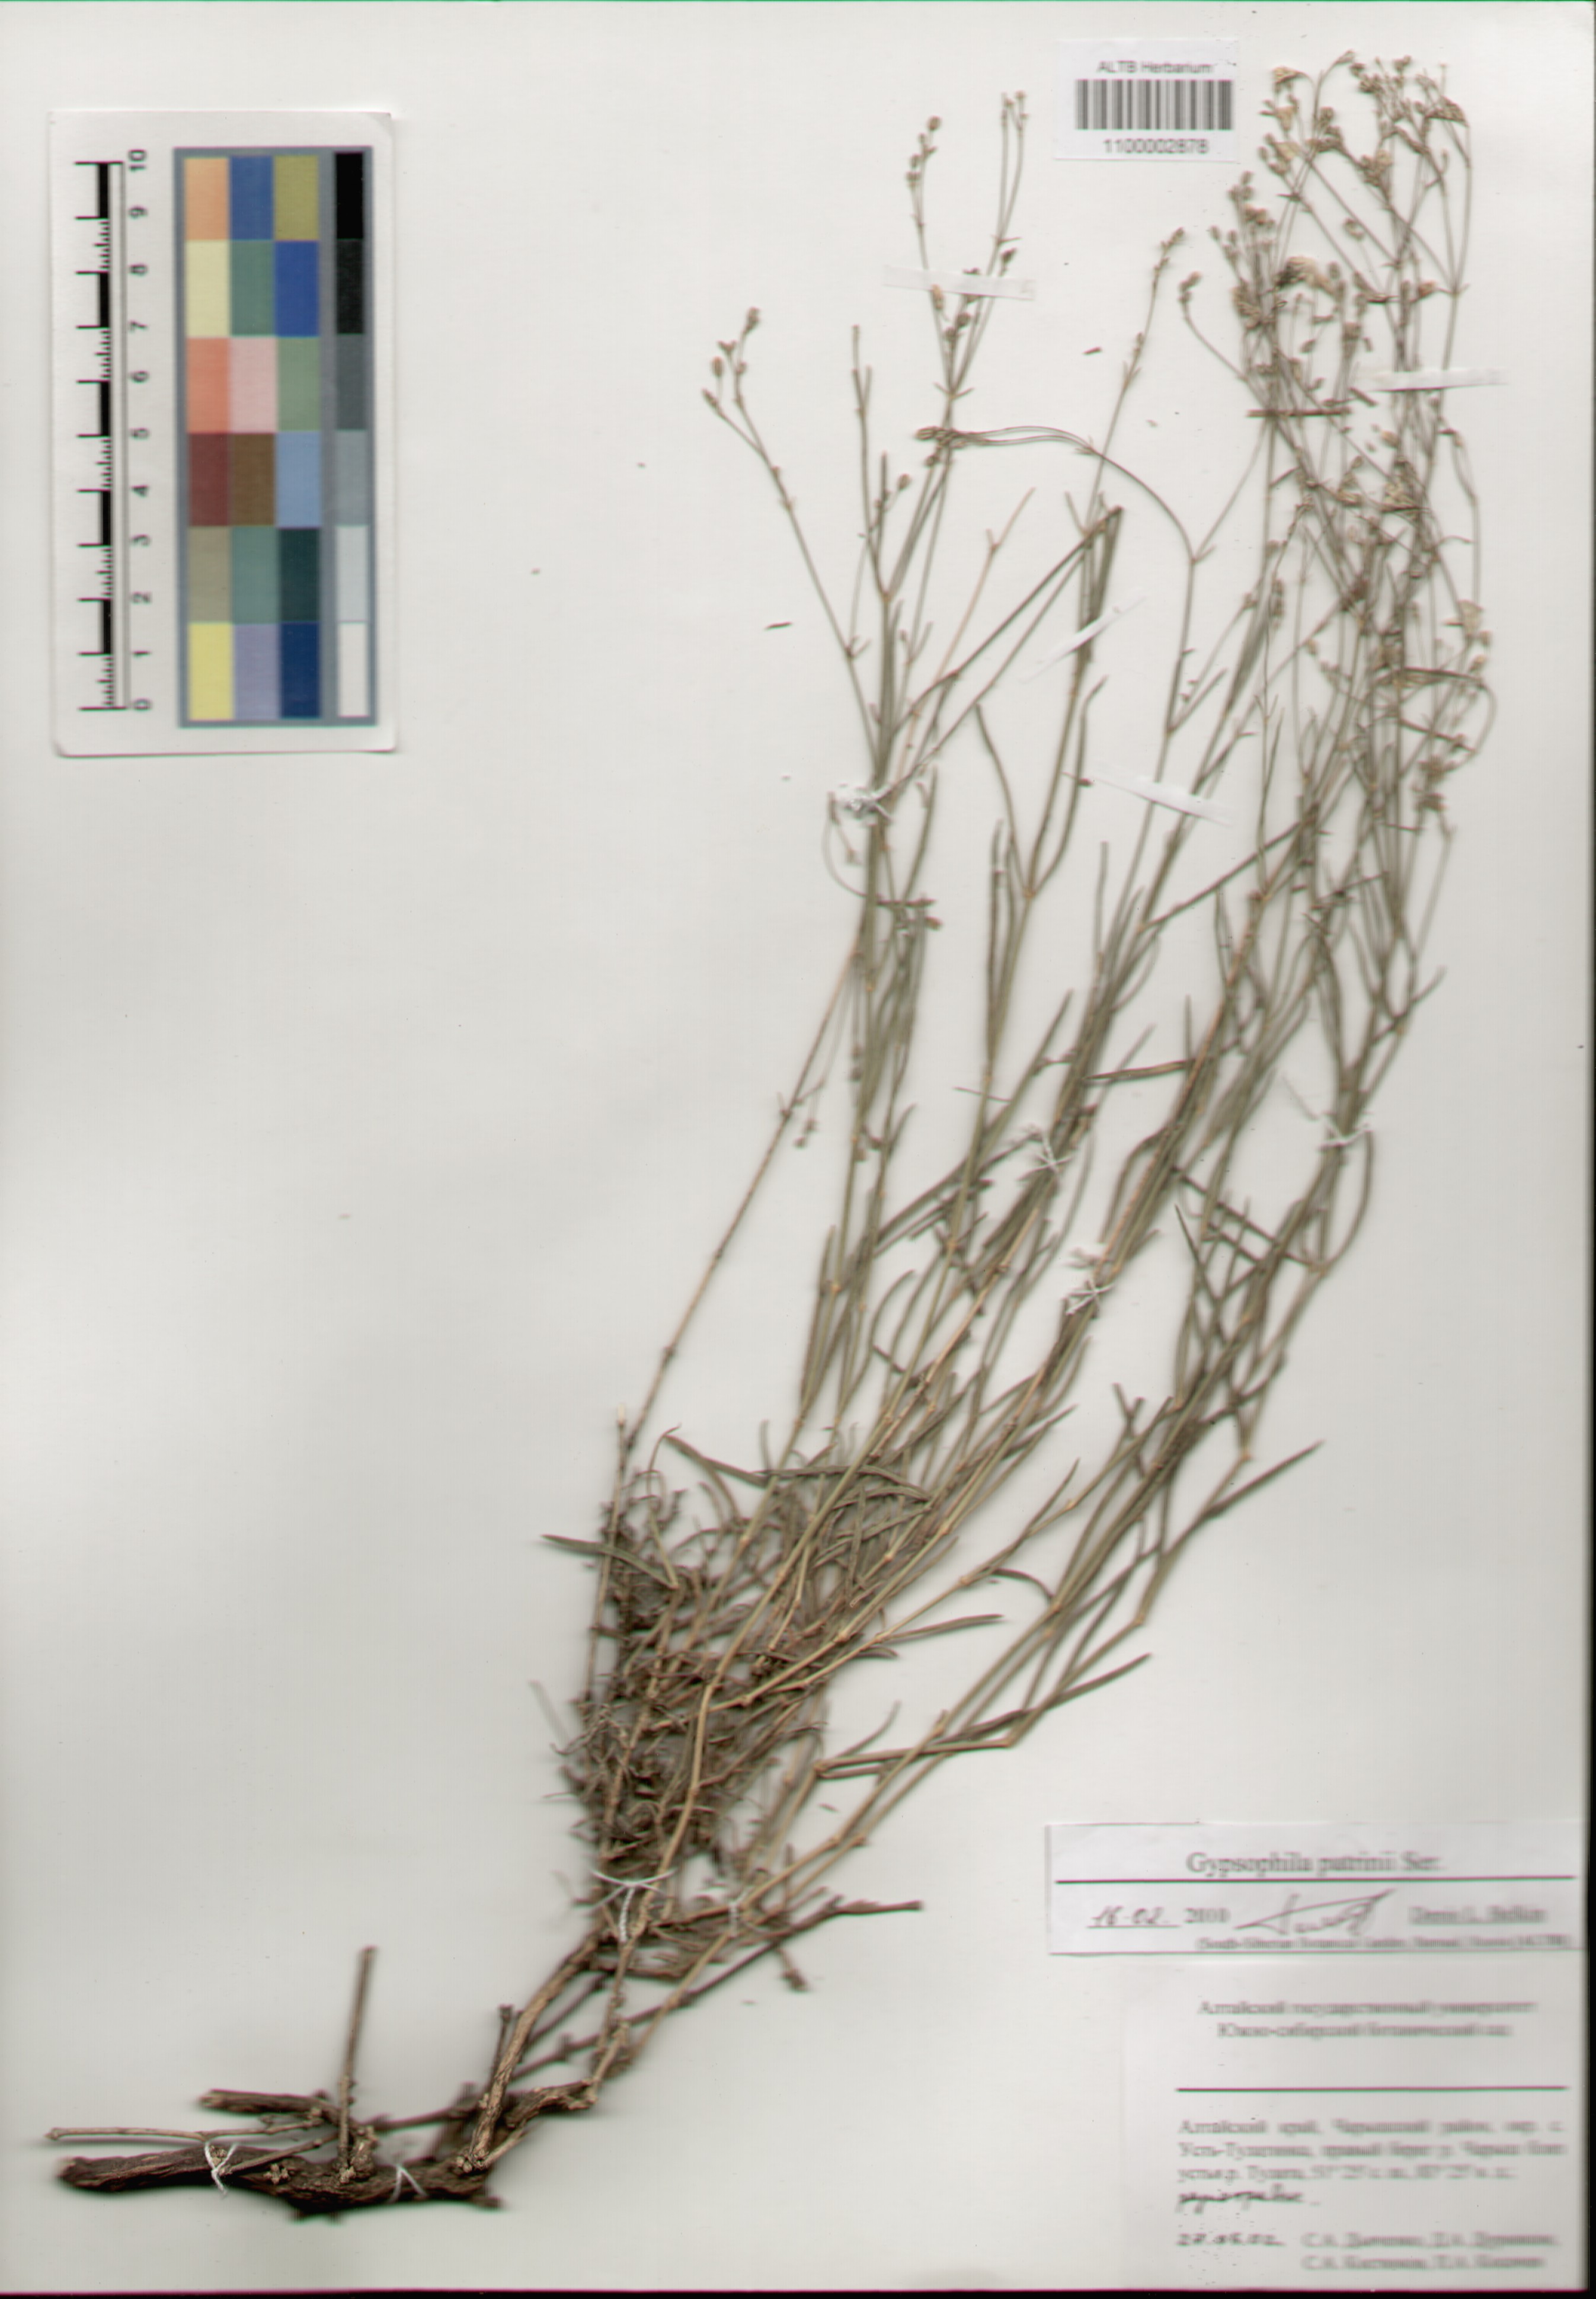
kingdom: Plantae
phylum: Tracheophyta
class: Magnoliopsida
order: Caryophyllales
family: Caryophyllaceae
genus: Gypsophila
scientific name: Gypsophila patrinii
